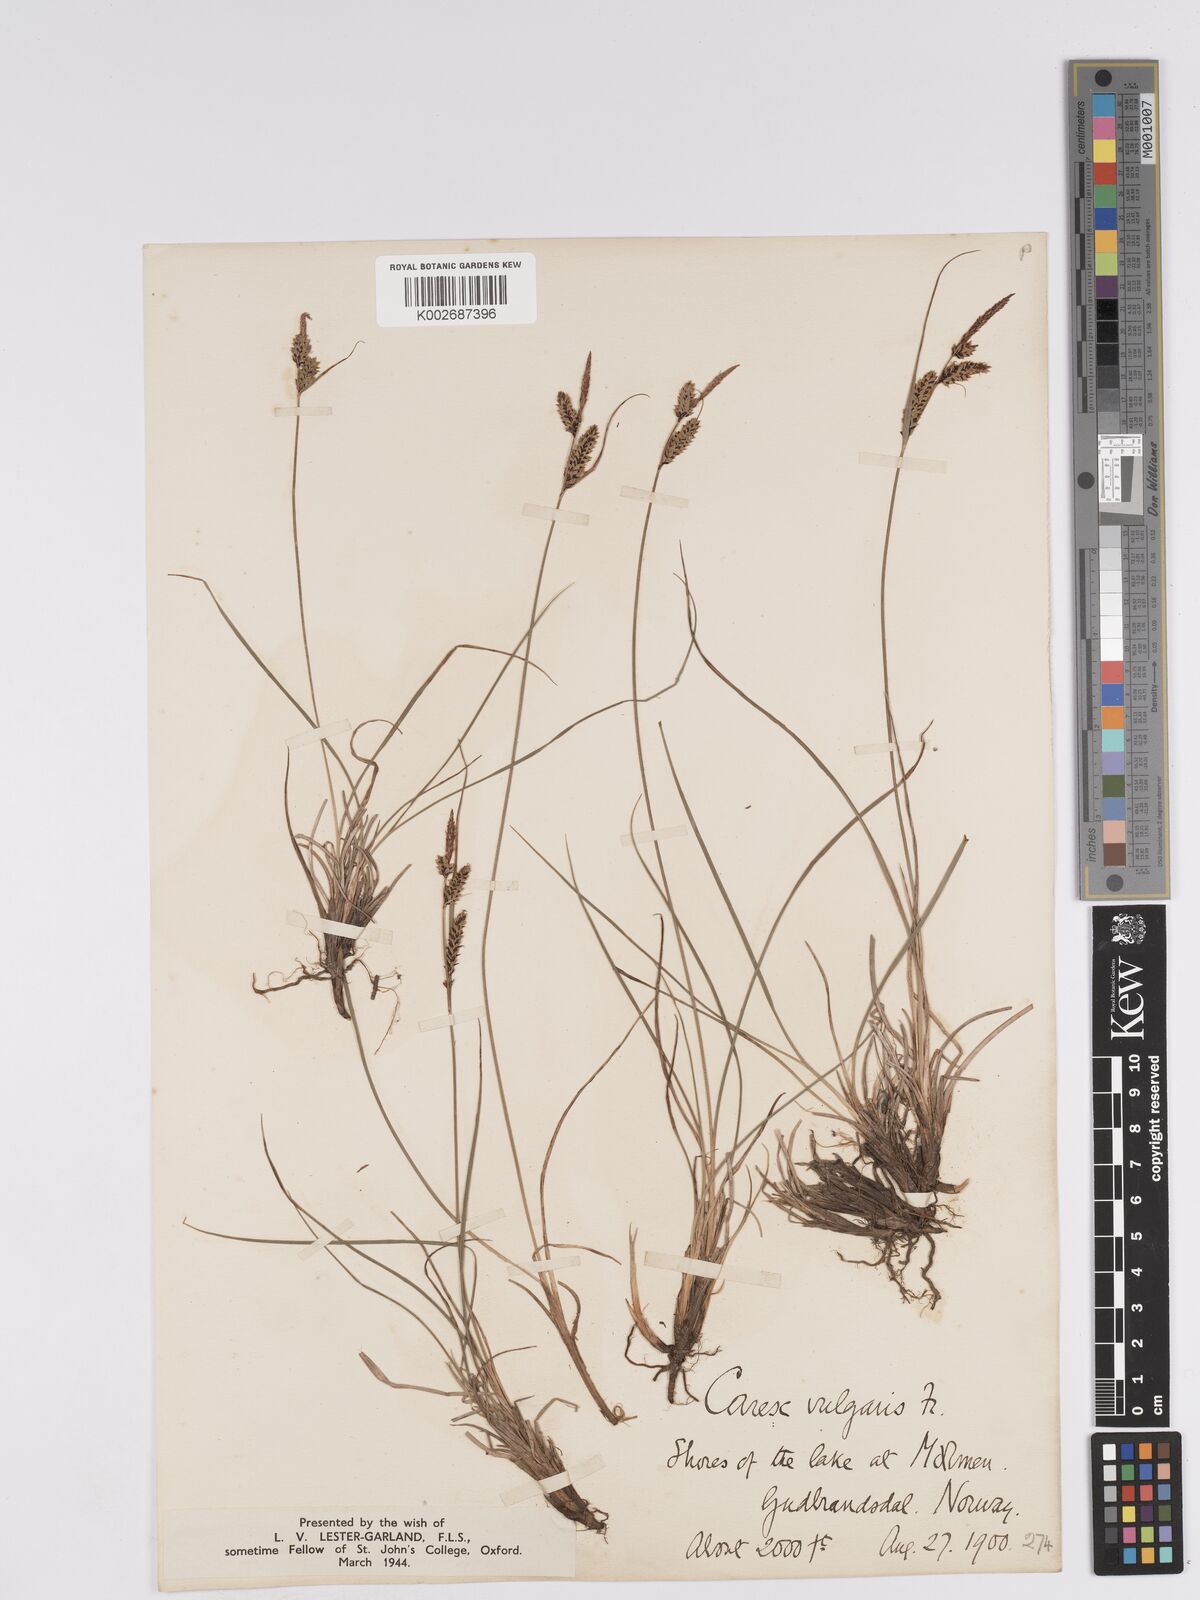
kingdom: Plantae
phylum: Tracheophyta
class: Liliopsida
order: Poales
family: Cyperaceae
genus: Carex
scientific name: Carex nigra
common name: Common sedge
